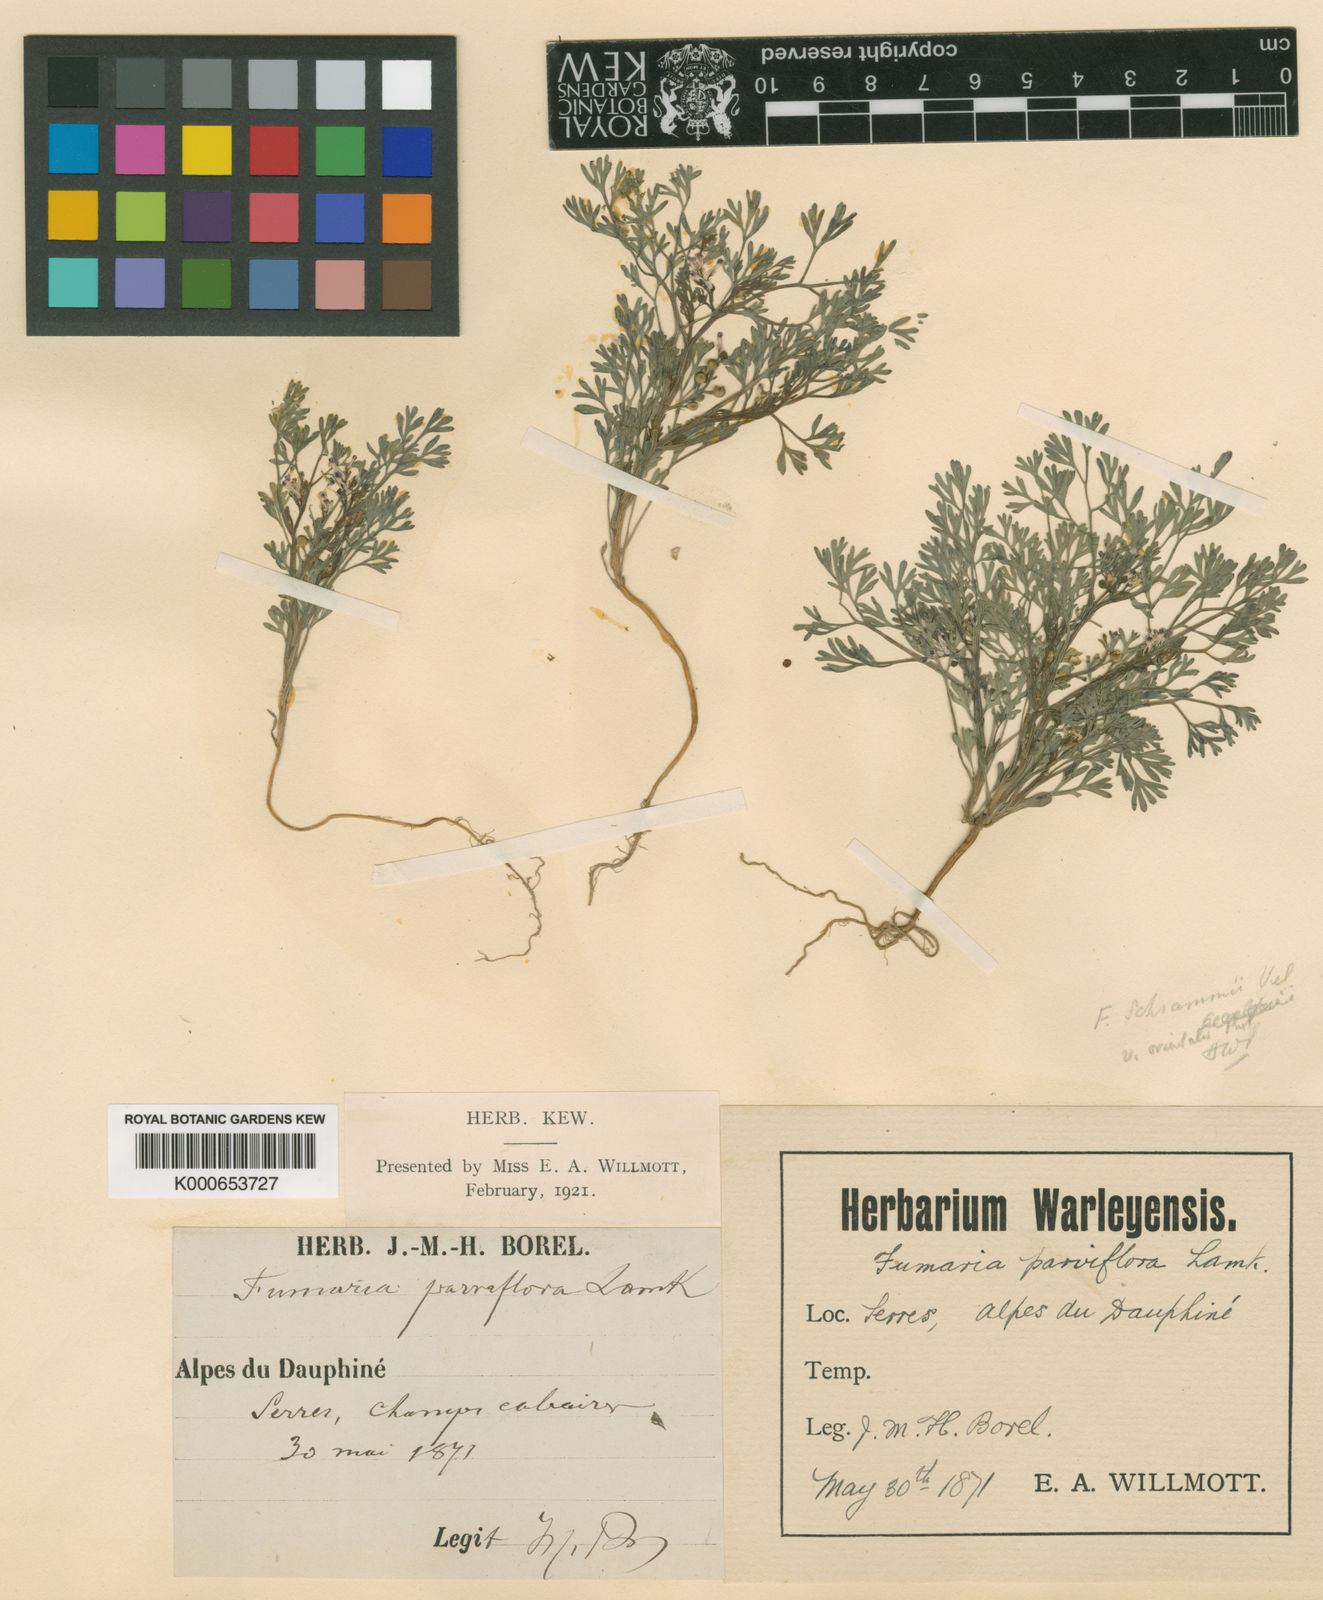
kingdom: Plantae
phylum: Tracheophyta
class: Magnoliopsida
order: Ranunculales
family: Papaveraceae
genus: Fumaria
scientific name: Fumaria
